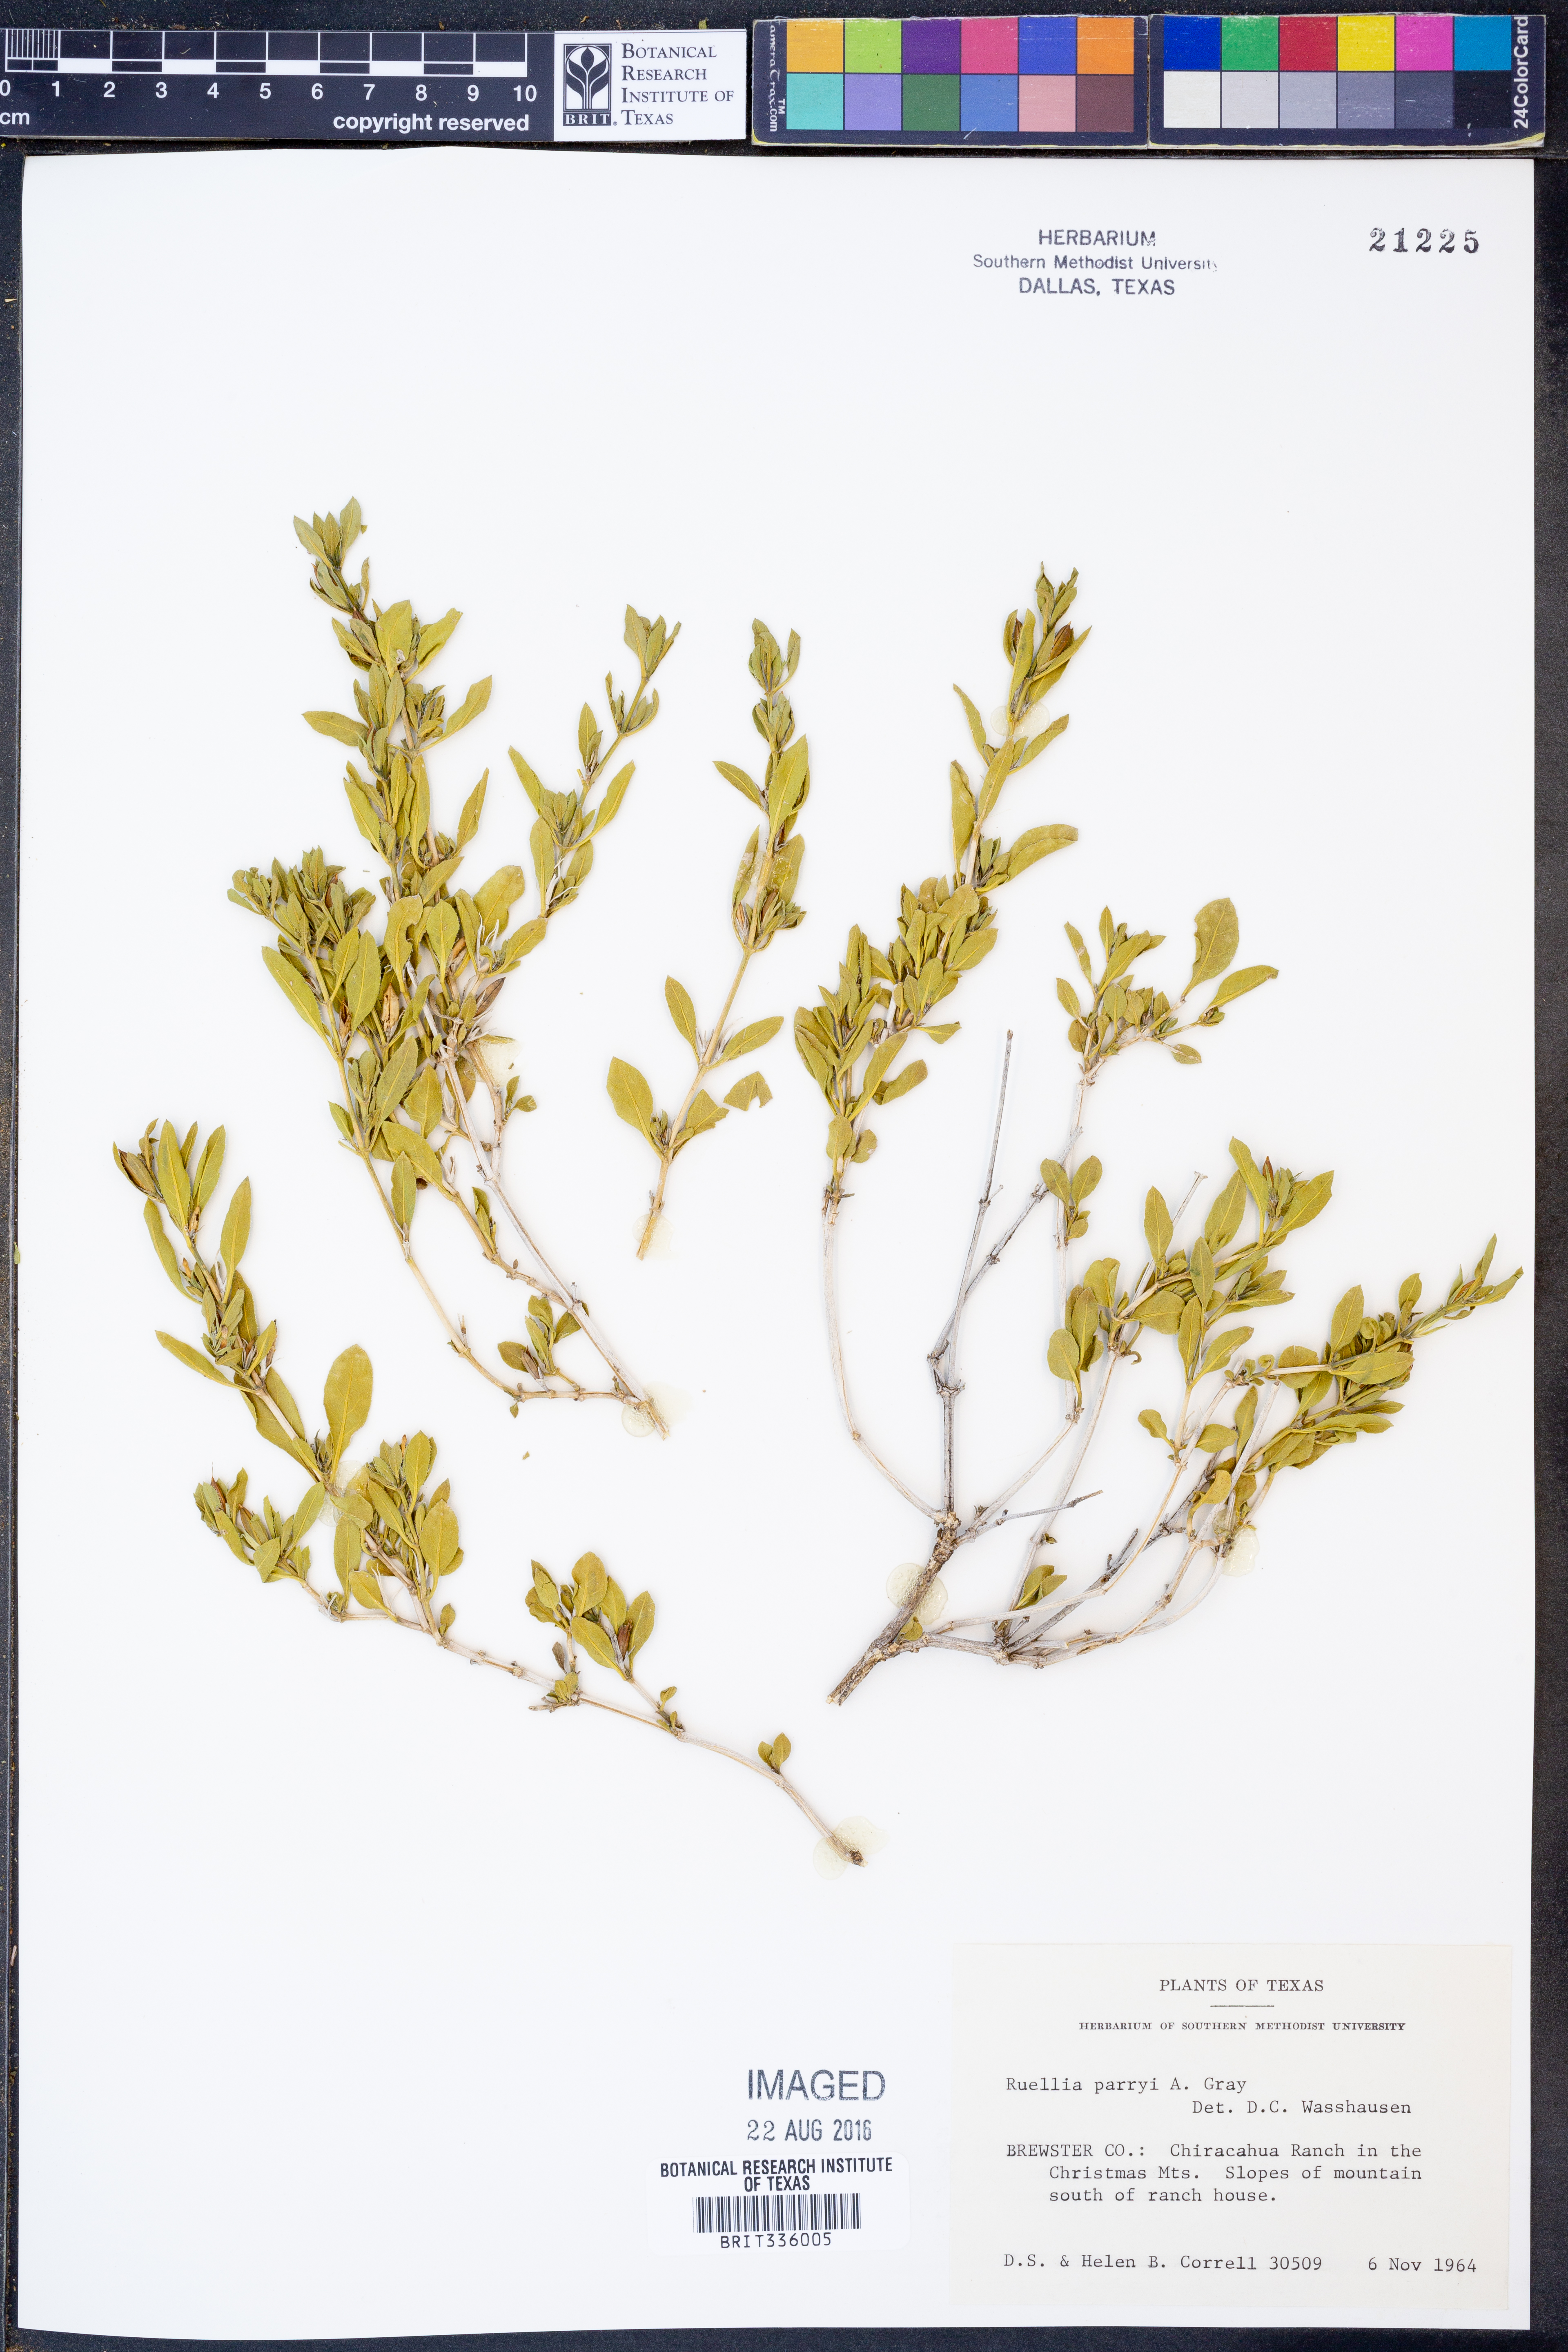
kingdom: Plantae
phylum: Tracheophyta
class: Magnoliopsida
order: Lamiales
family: Acanthaceae
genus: Ruellia
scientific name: Ruellia parryi
